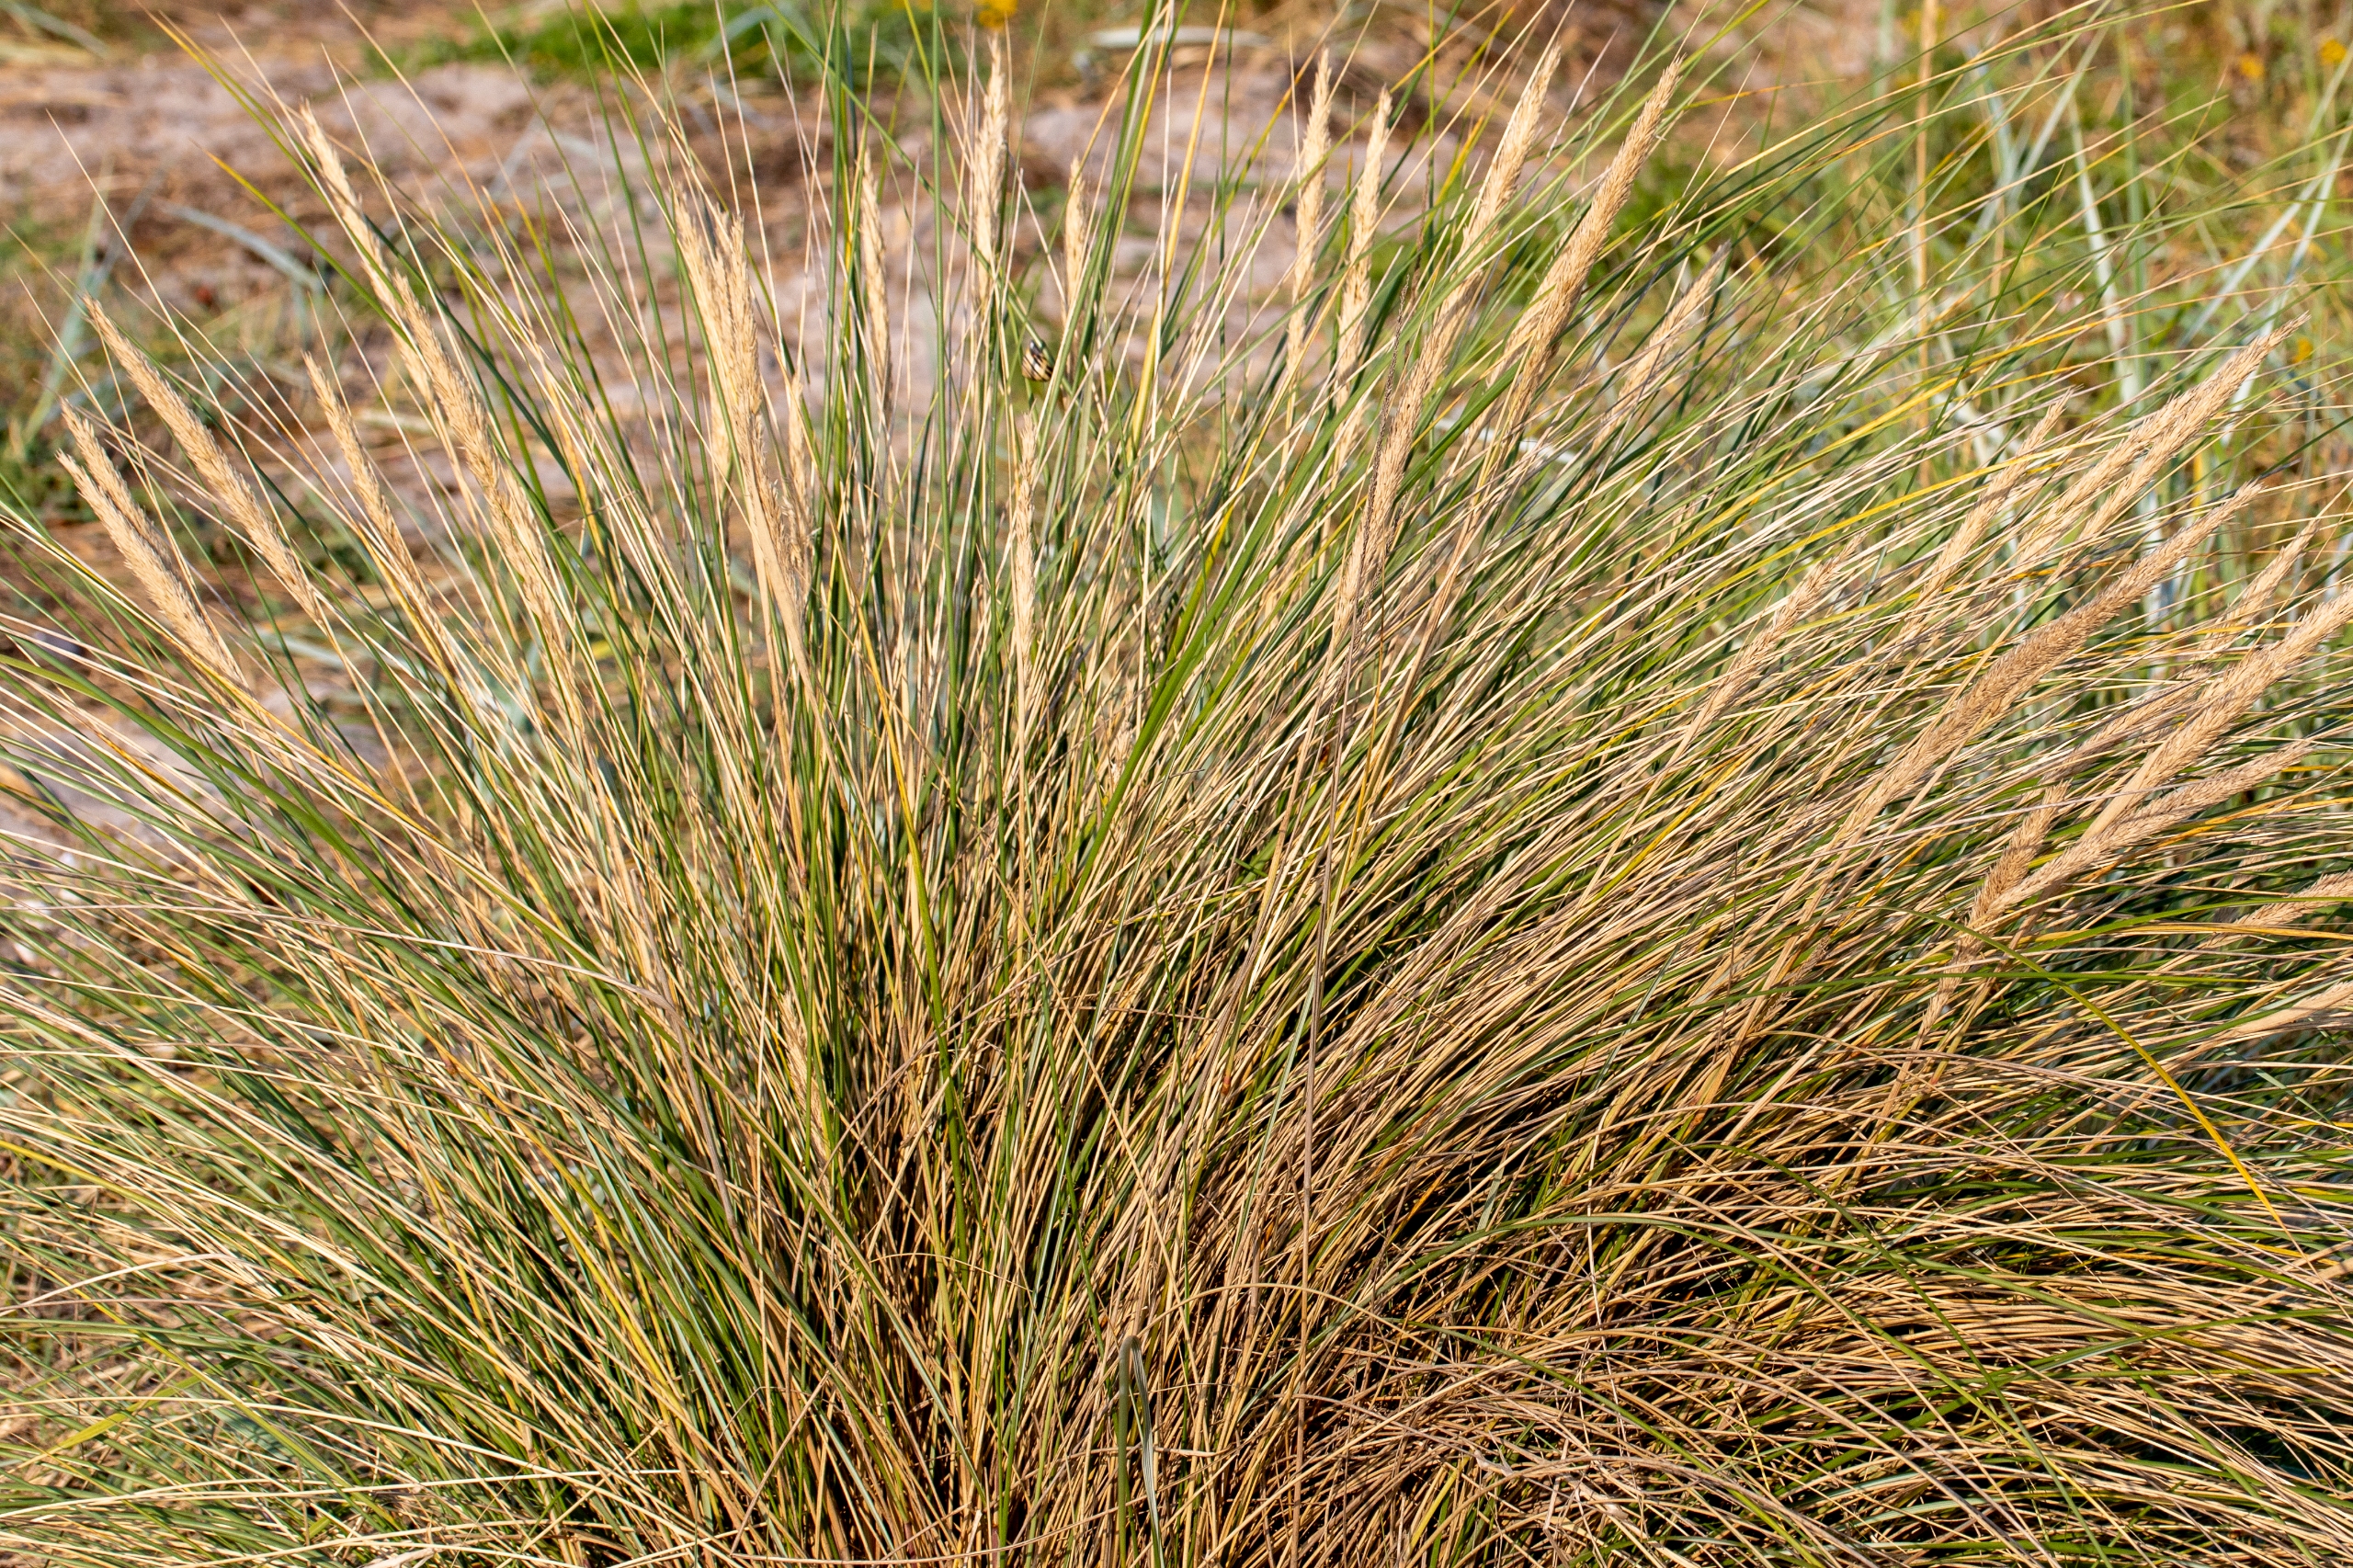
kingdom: Plantae
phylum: Tracheophyta
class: Liliopsida
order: Poales
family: Poaceae
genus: Calamagrostis
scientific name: Calamagrostis arenaria
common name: Sand-hjælme
